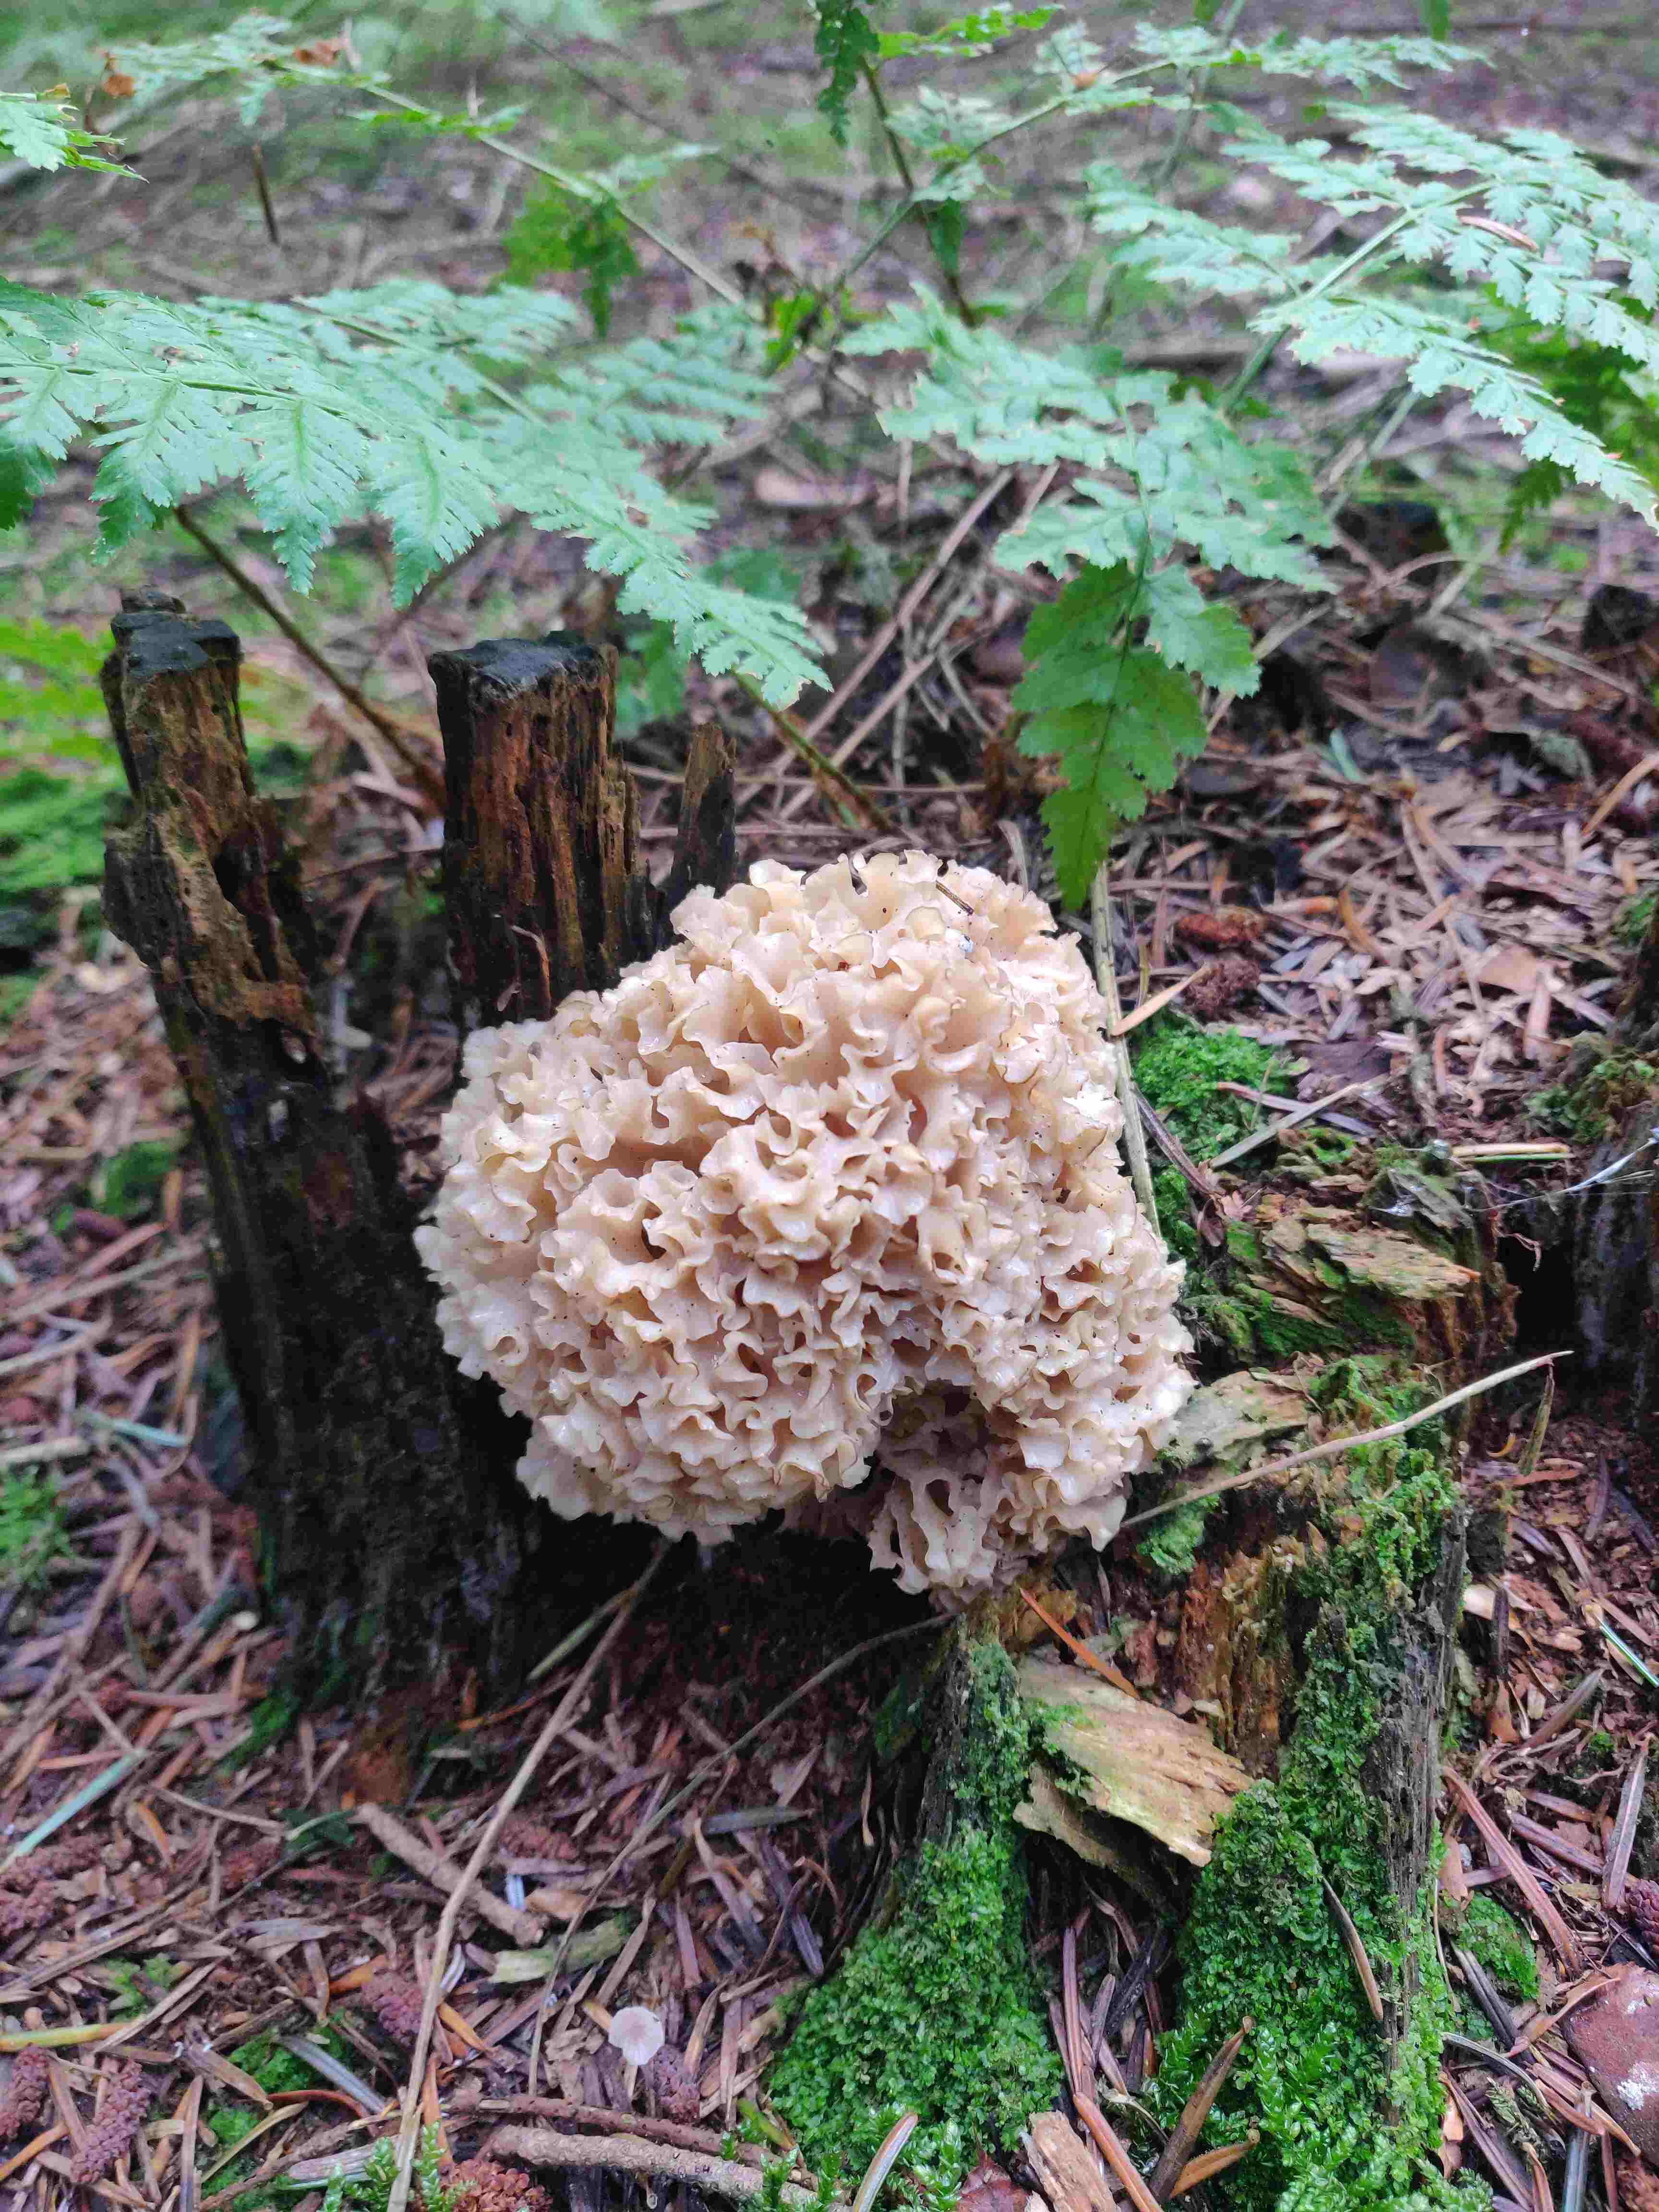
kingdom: Fungi
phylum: Basidiomycota
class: Agaricomycetes
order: Polyporales
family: Sparassidaceae
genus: Sparassis
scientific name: Sparassis crispa
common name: kruset blomkålssvamp
